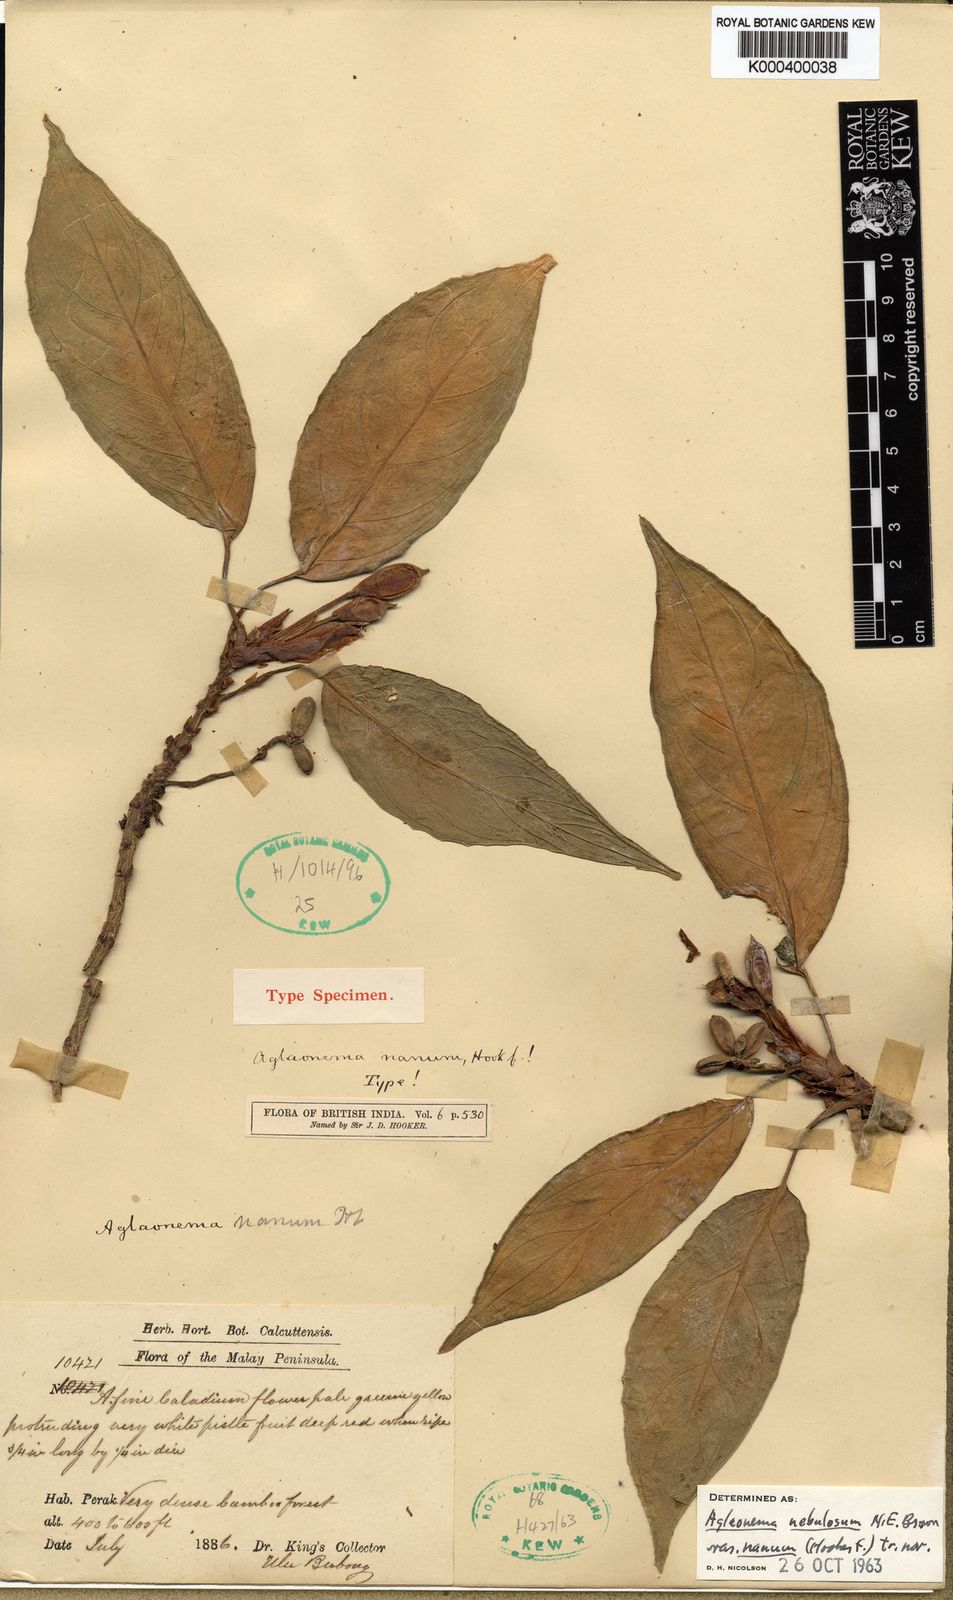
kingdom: Plantae
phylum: Tracheophyta
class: Liliopsida
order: Alismatales
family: Araceae
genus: Aglaonema
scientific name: Aglaonema nebulosum
